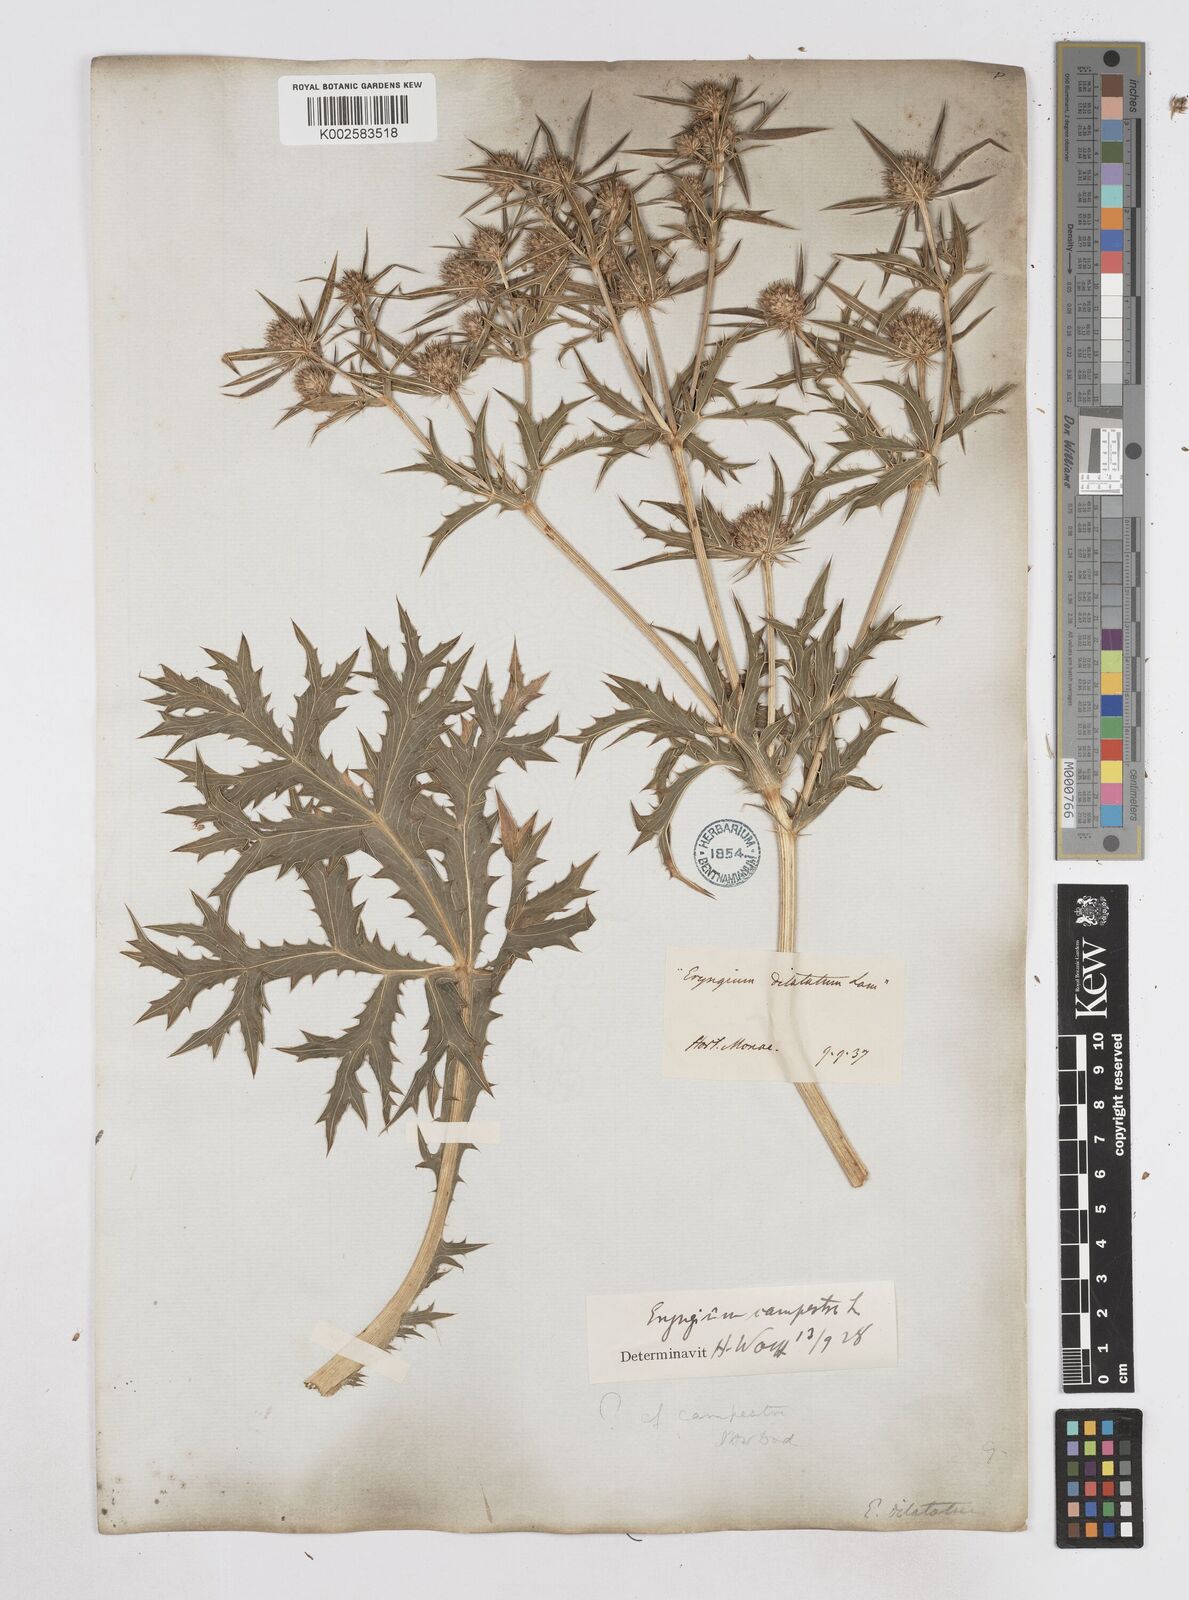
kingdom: Plantae
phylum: Tracheophyta
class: Magnoliopsida
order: Apiales
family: Apiaceae
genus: Eryngium
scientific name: Eryngium campestre
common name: Field eryngo
